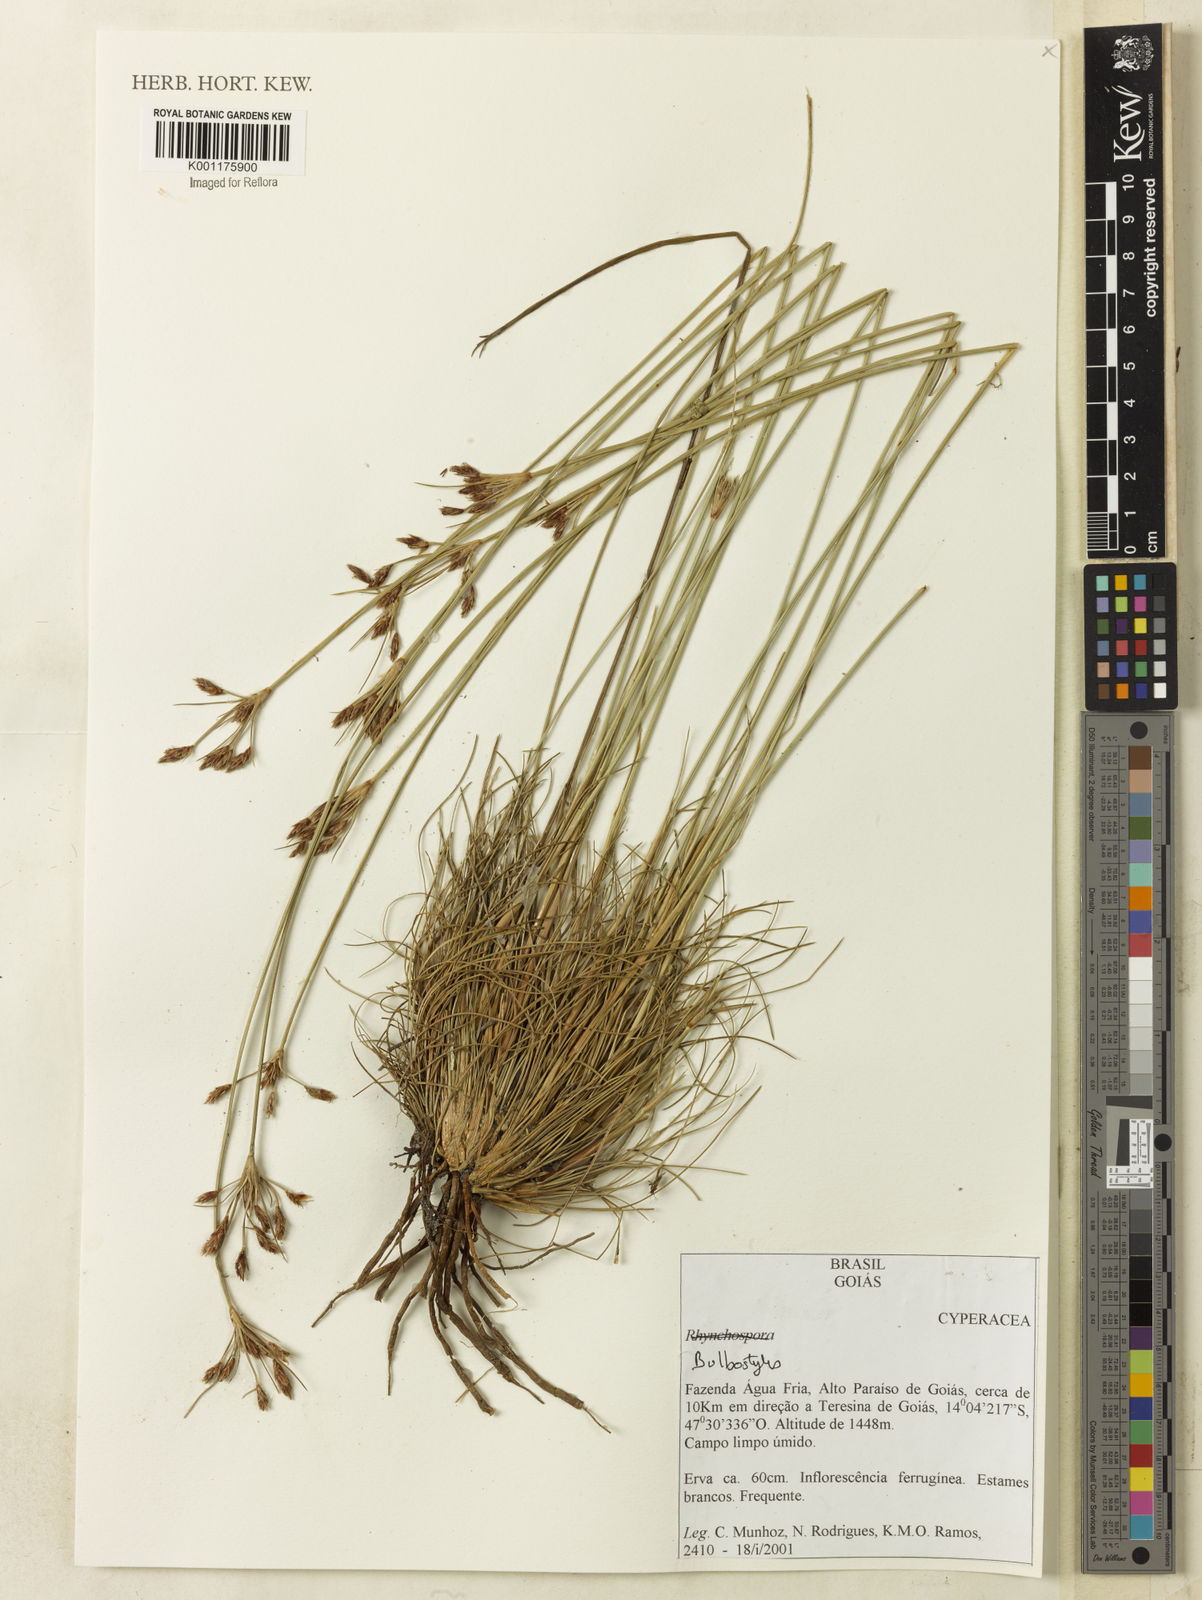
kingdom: Plantae
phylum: Tracheophyta
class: Liliopsida
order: Poales
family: Cyperaceae
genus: Bulbostylis
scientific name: Bulbostylis
